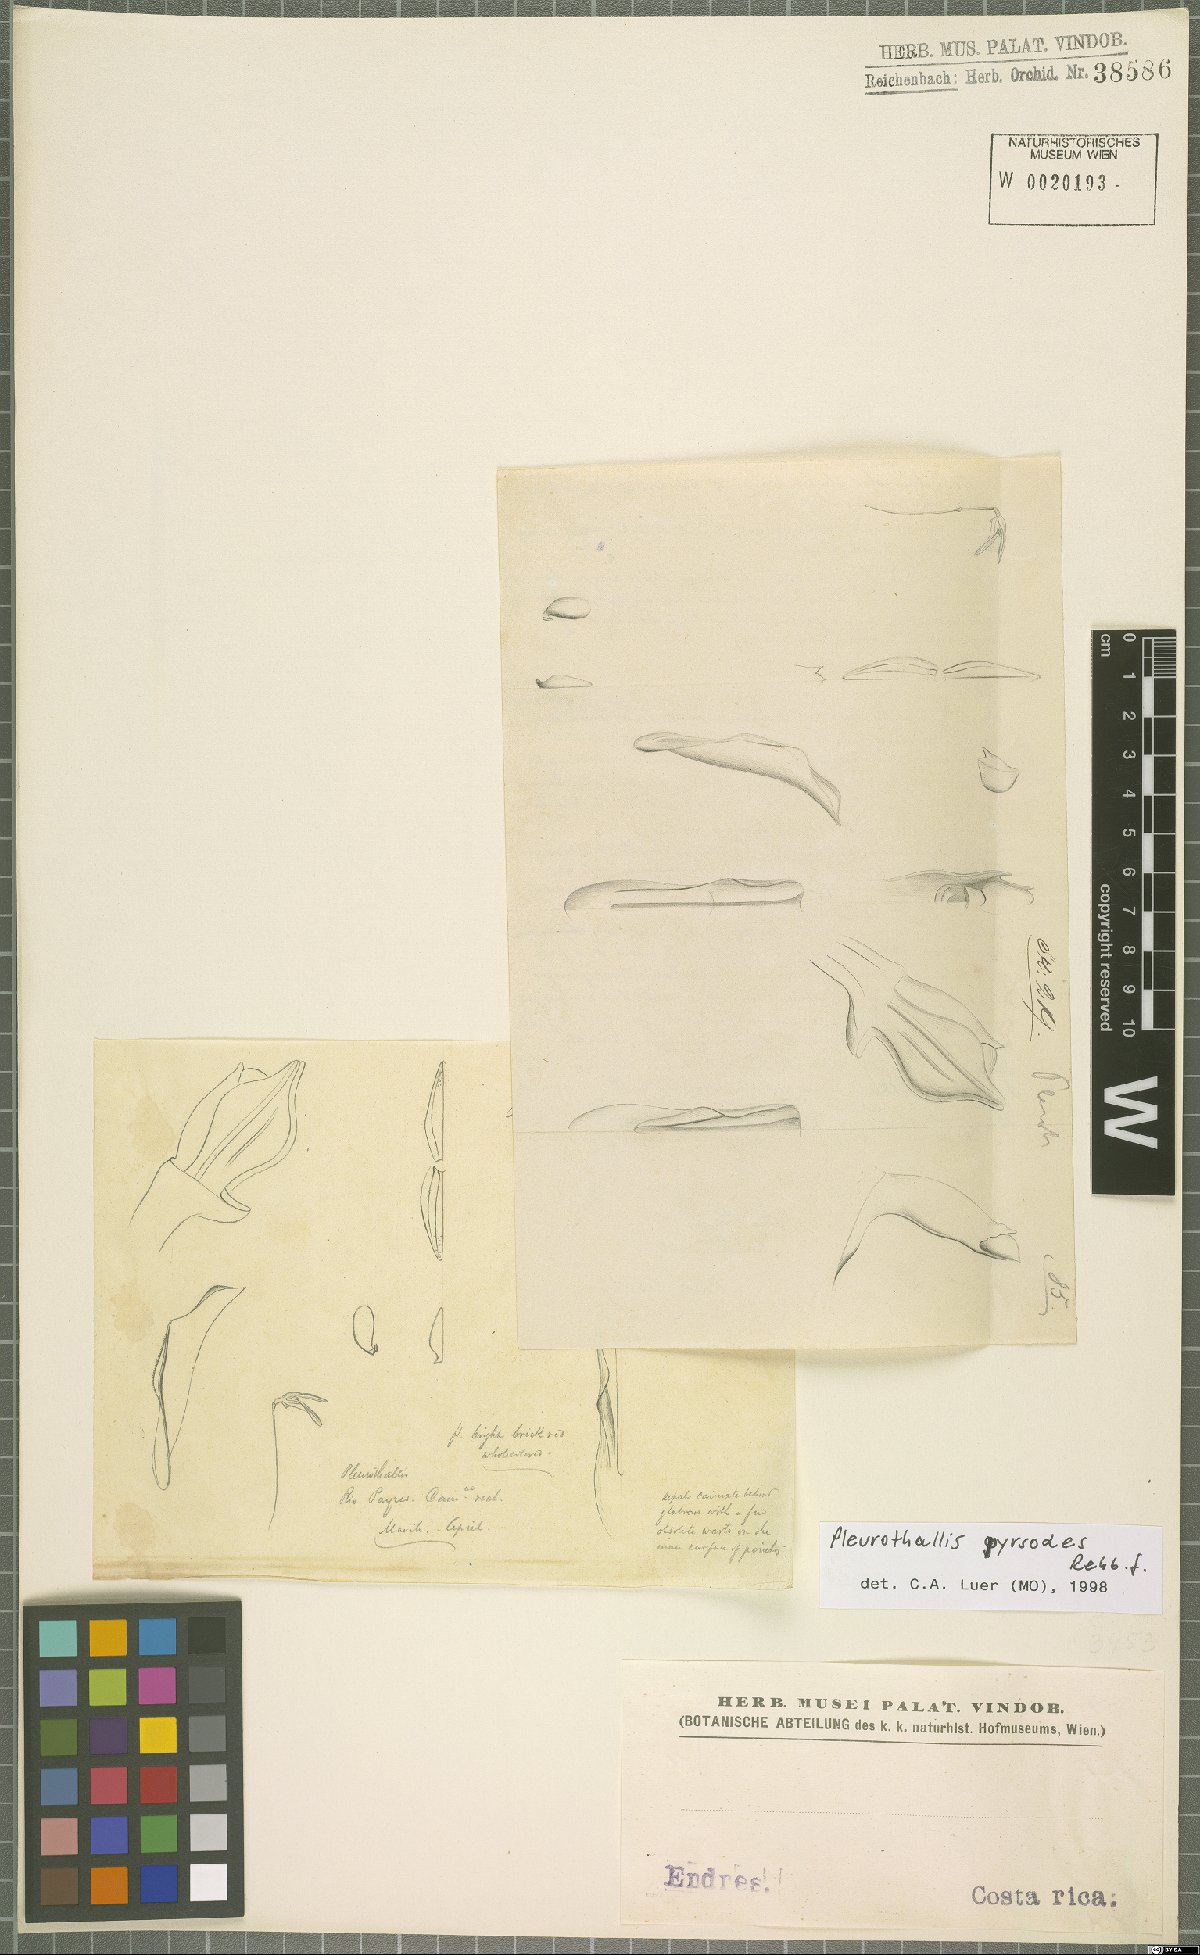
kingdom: Plantae
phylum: Tracheophyta
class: Liliopsida
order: Asparagales
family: Orchidaceae
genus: Specklinia
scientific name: Specklinia corniculata
